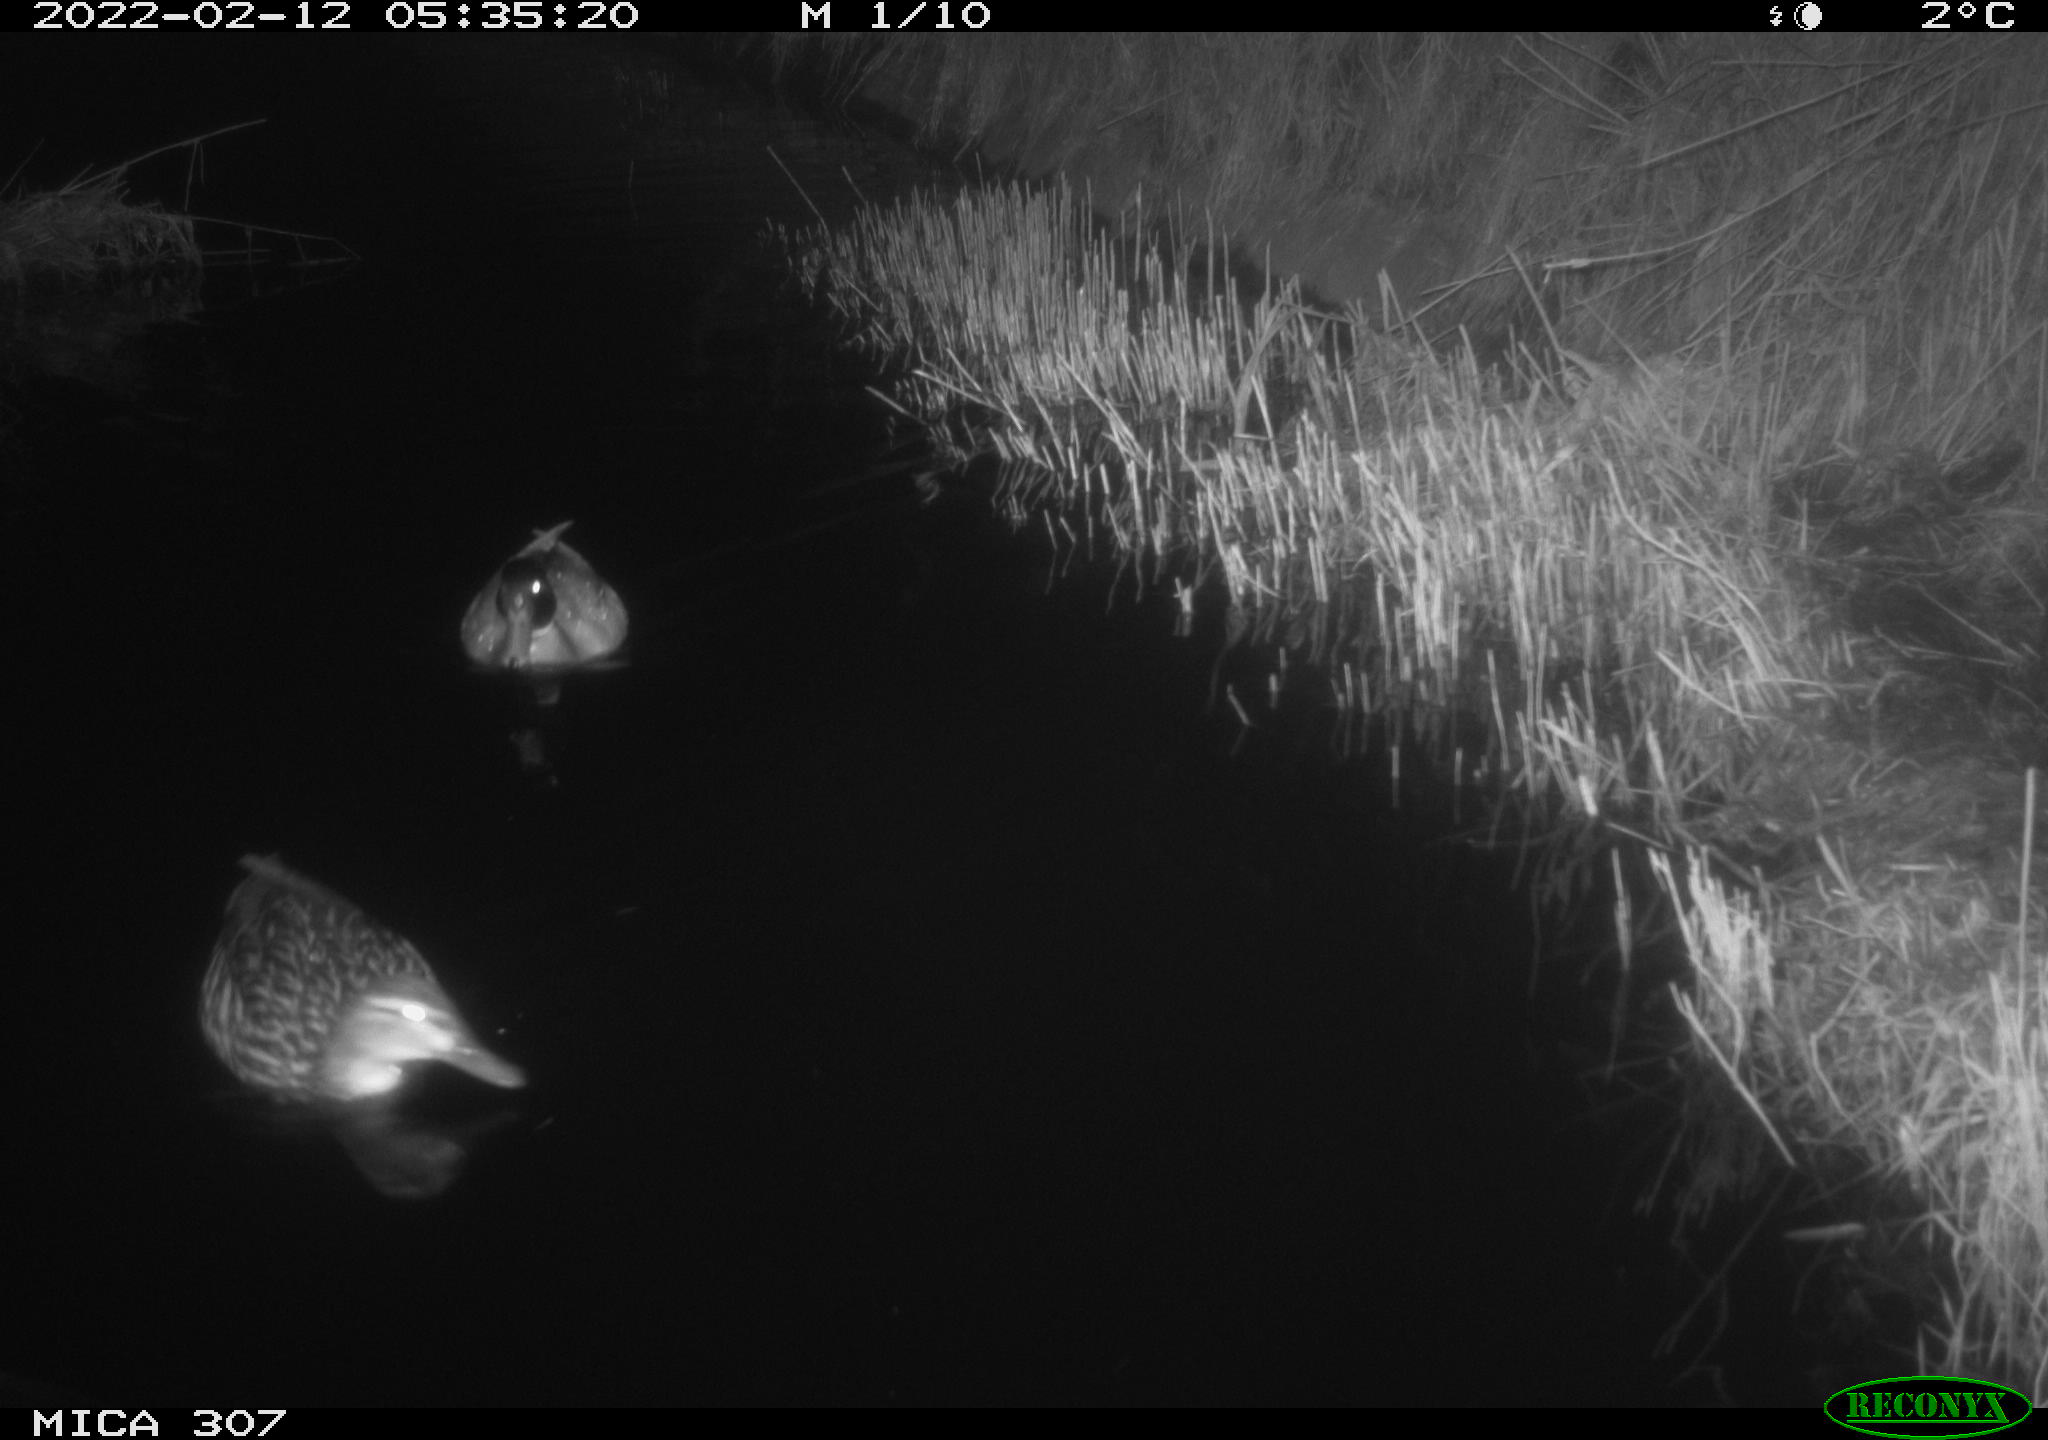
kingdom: Animalia
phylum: Chordata
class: Aves
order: Anseriformes
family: Anatidae
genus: Anas
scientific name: Anas platyrhynchos
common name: Mallard
